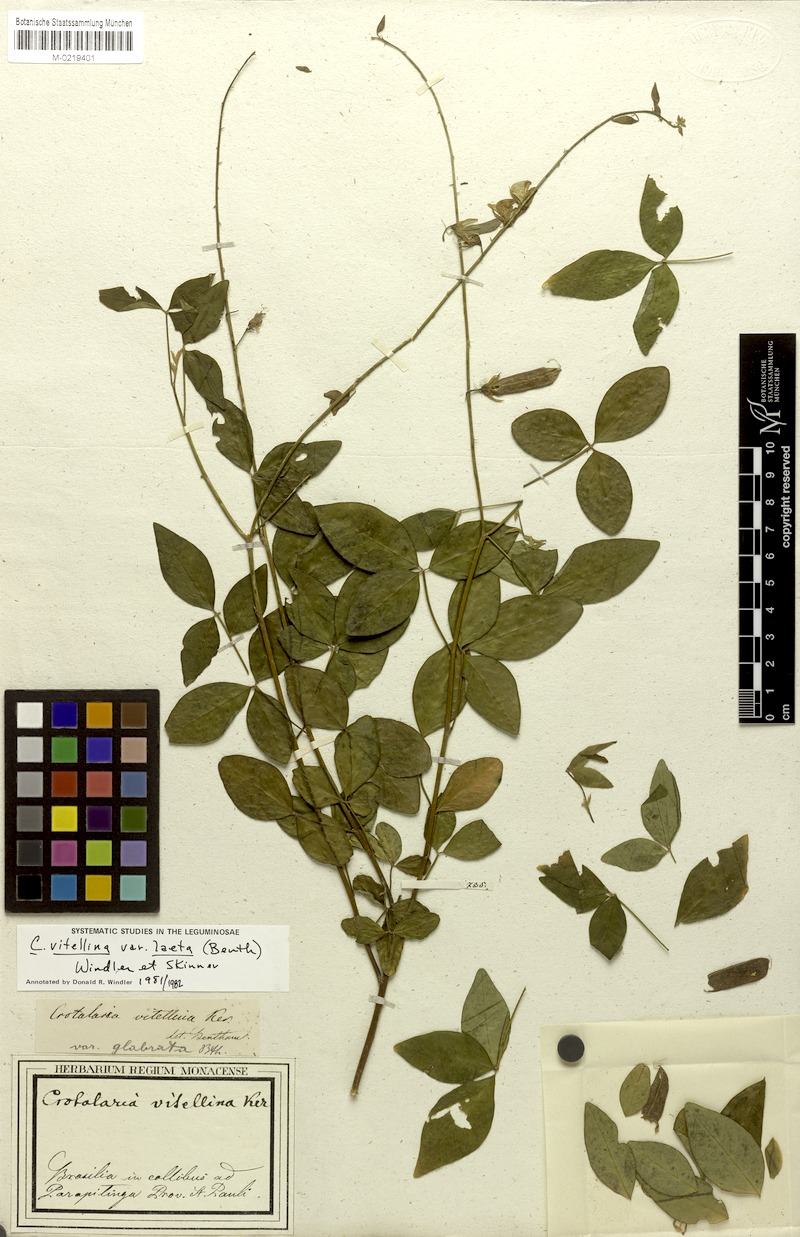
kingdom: Plantae
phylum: Tracheophyta
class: Magnoliopsida
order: Fabales
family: Fabaceae
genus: Crotalaria
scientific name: Crotalaria laeta
